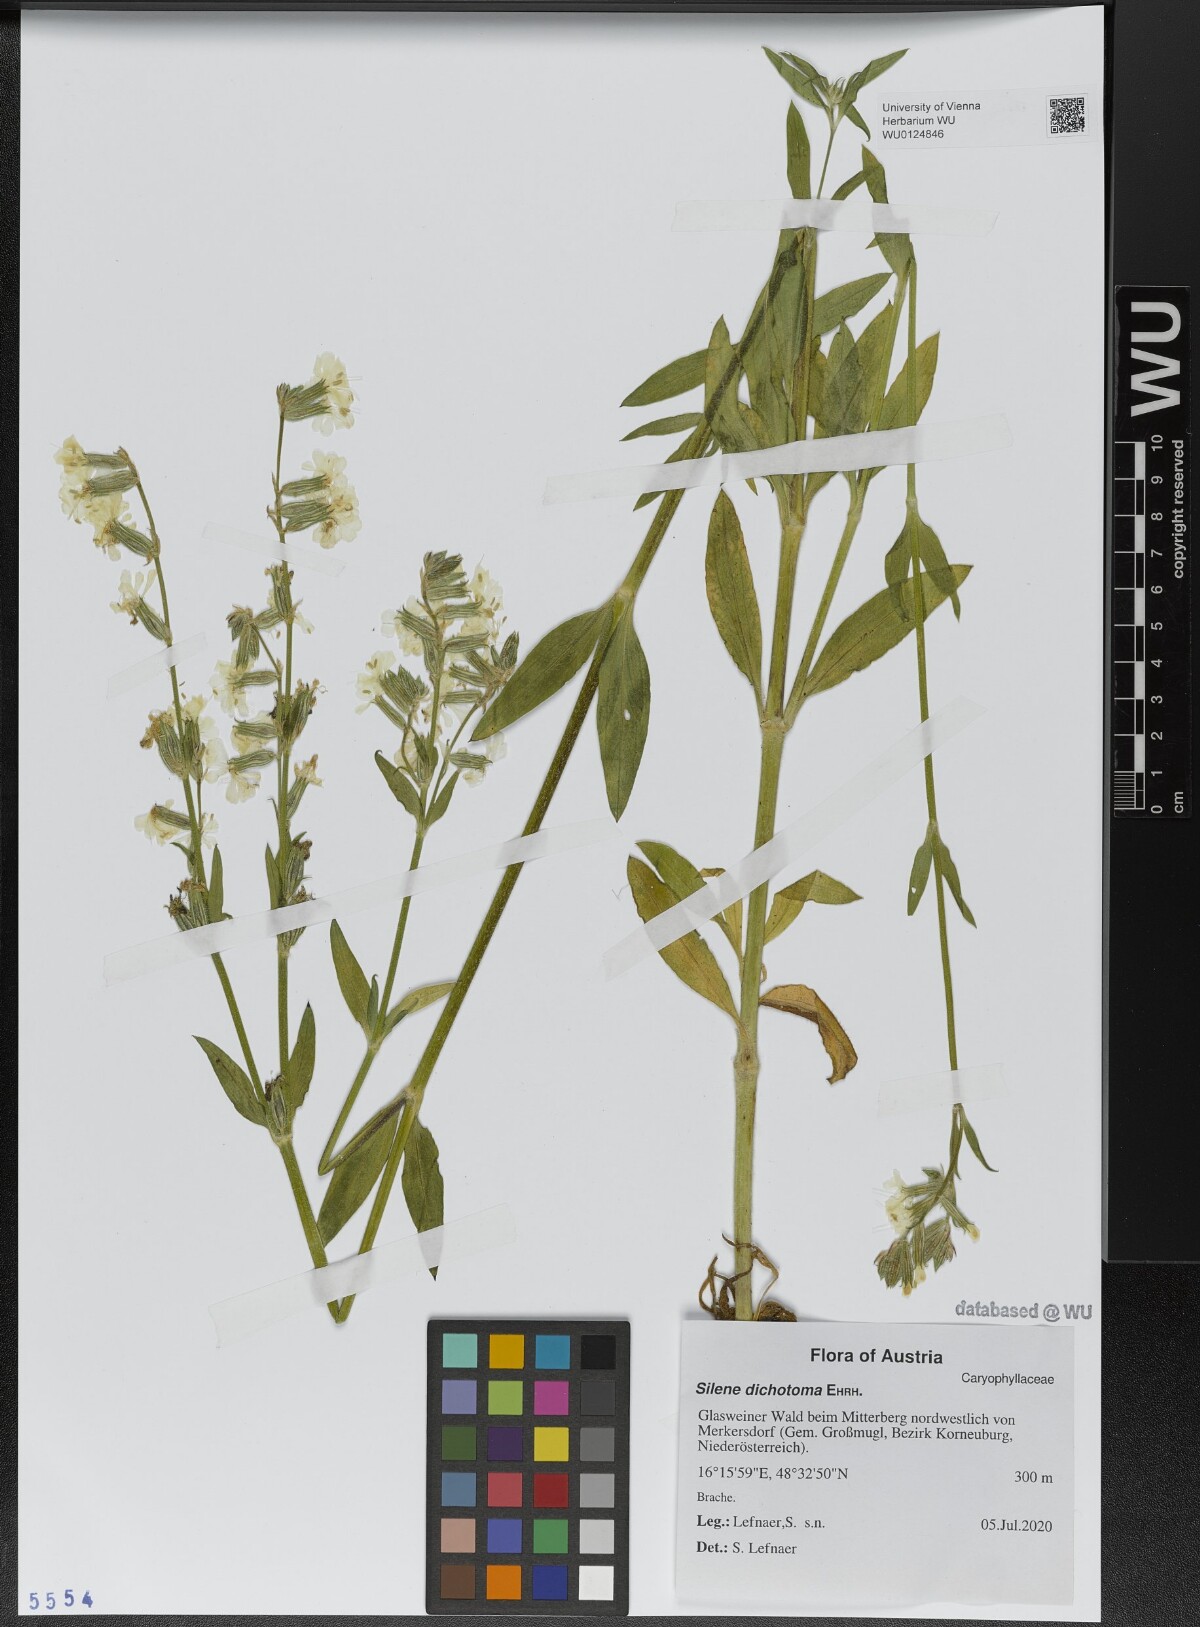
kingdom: Plantae
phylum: Tracheophyta
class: Magnoliopsida
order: Caryophyllales
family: Caryophyllaceae
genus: Silene
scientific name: Silene dichotoma
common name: Forked catchfly
